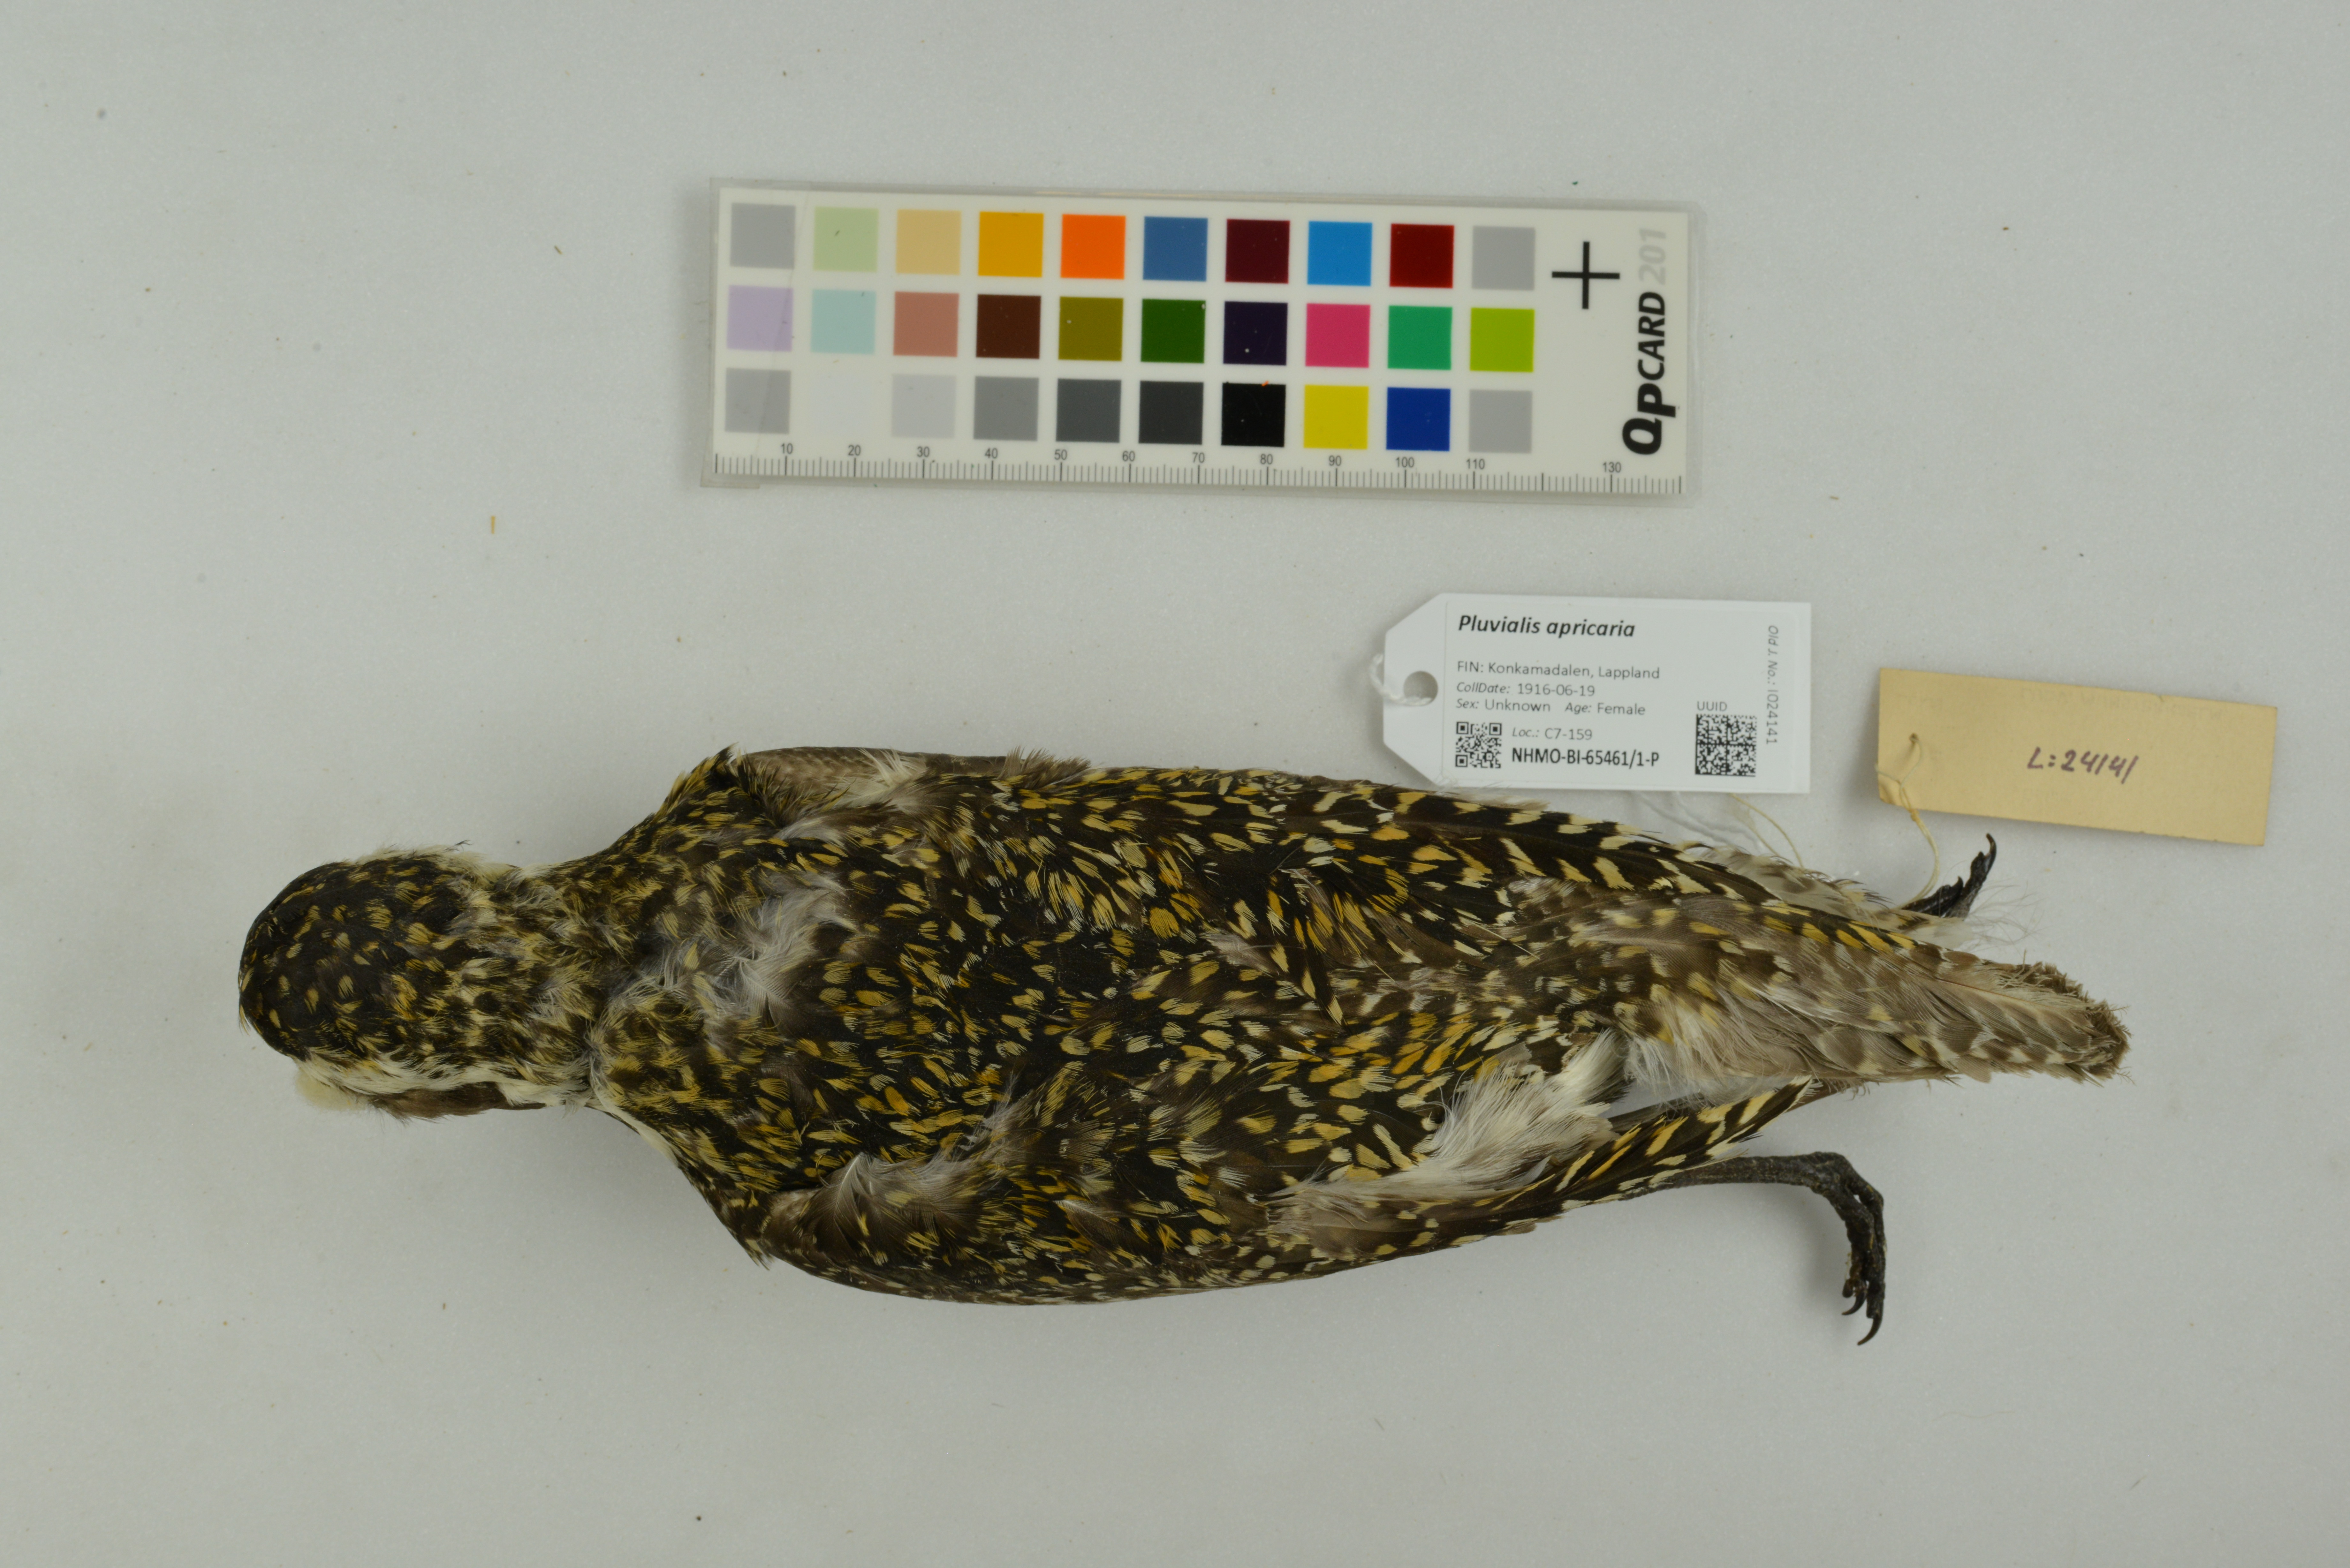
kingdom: Animalia
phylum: Chordata
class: Aves
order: Charadriiformes
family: Charadriidae
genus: Pluvialis
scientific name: Pluvialis apricaria
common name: European golden plover
